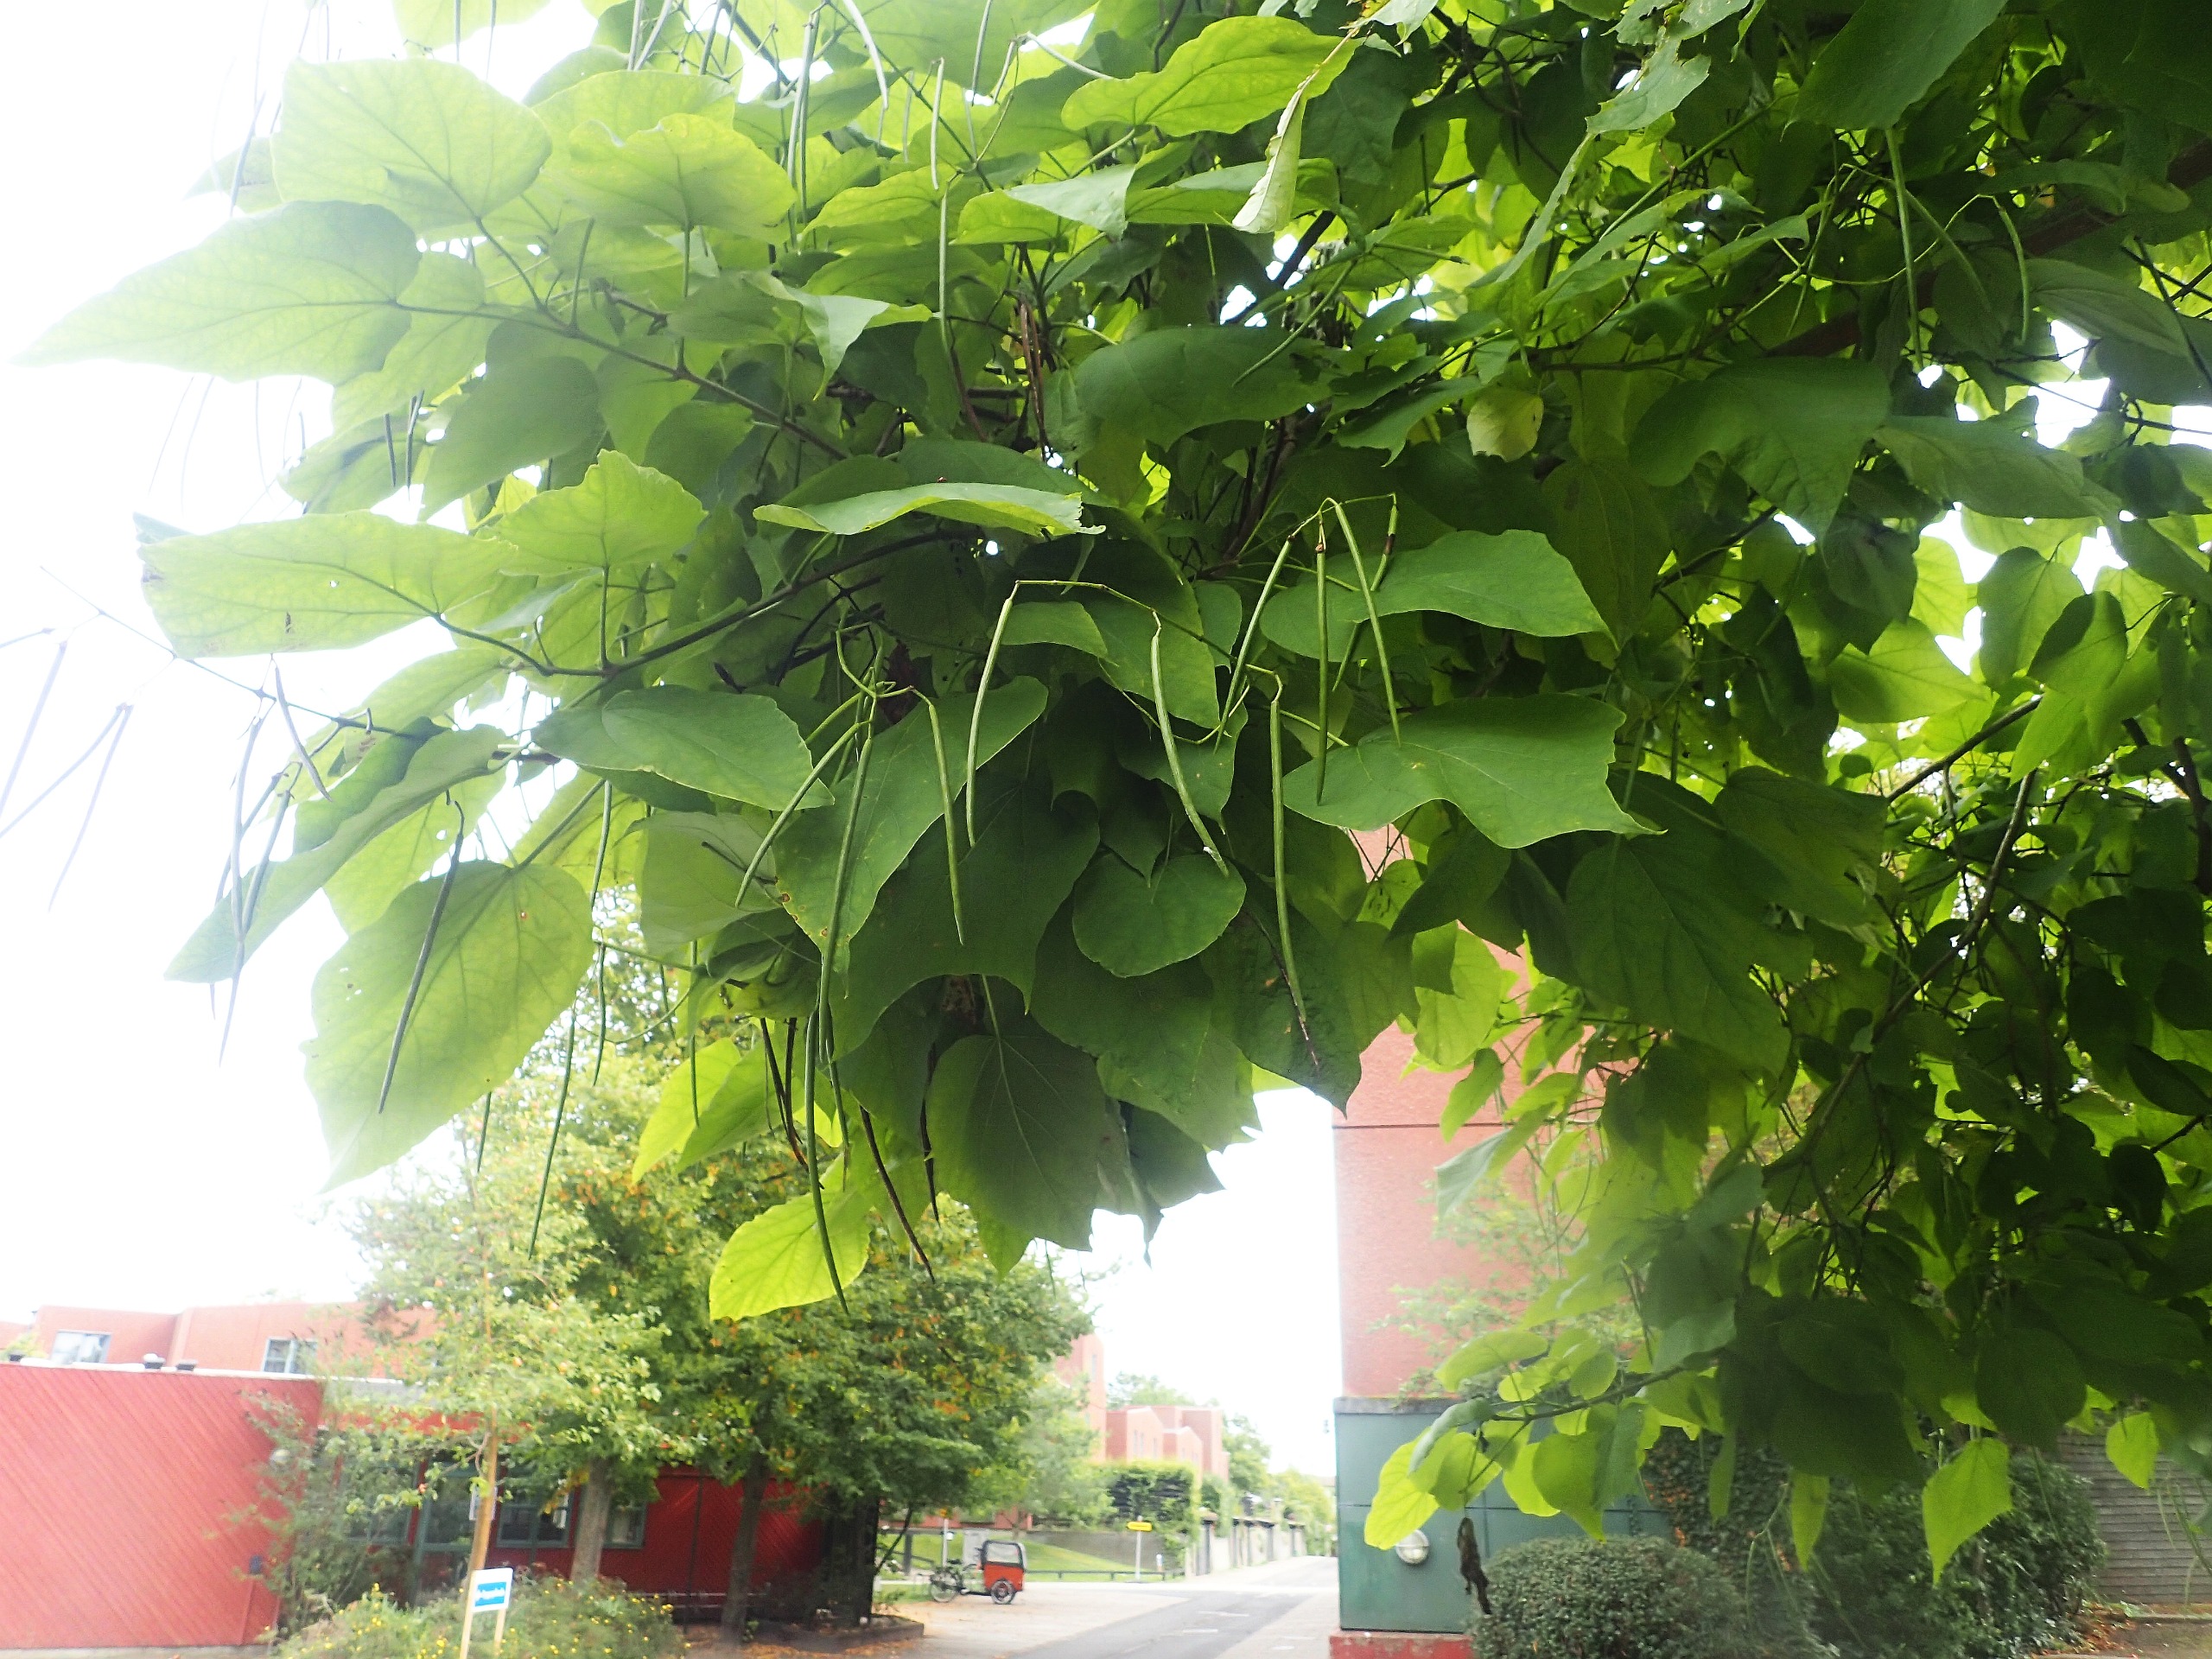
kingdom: Plantae
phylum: Tracheophyta
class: Magnoliopsida
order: Lamiales
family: Bignoniaceae
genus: Catalpa
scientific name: Catalpa
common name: Trompetkroneslægten
